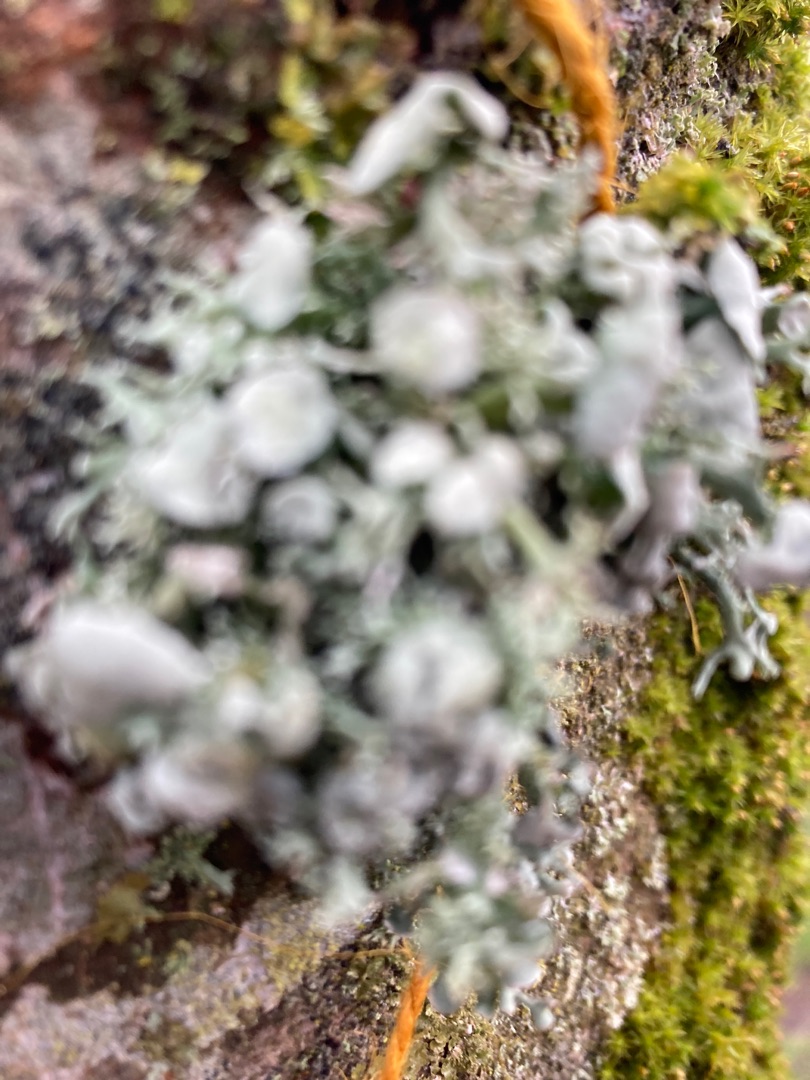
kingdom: Fungi
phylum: Ascomycota
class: Lecanoromycetes
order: Lecanorales
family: Ramalinaceae
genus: Ramalina
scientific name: Ramalina fastigiata
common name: Tue-grenlav
